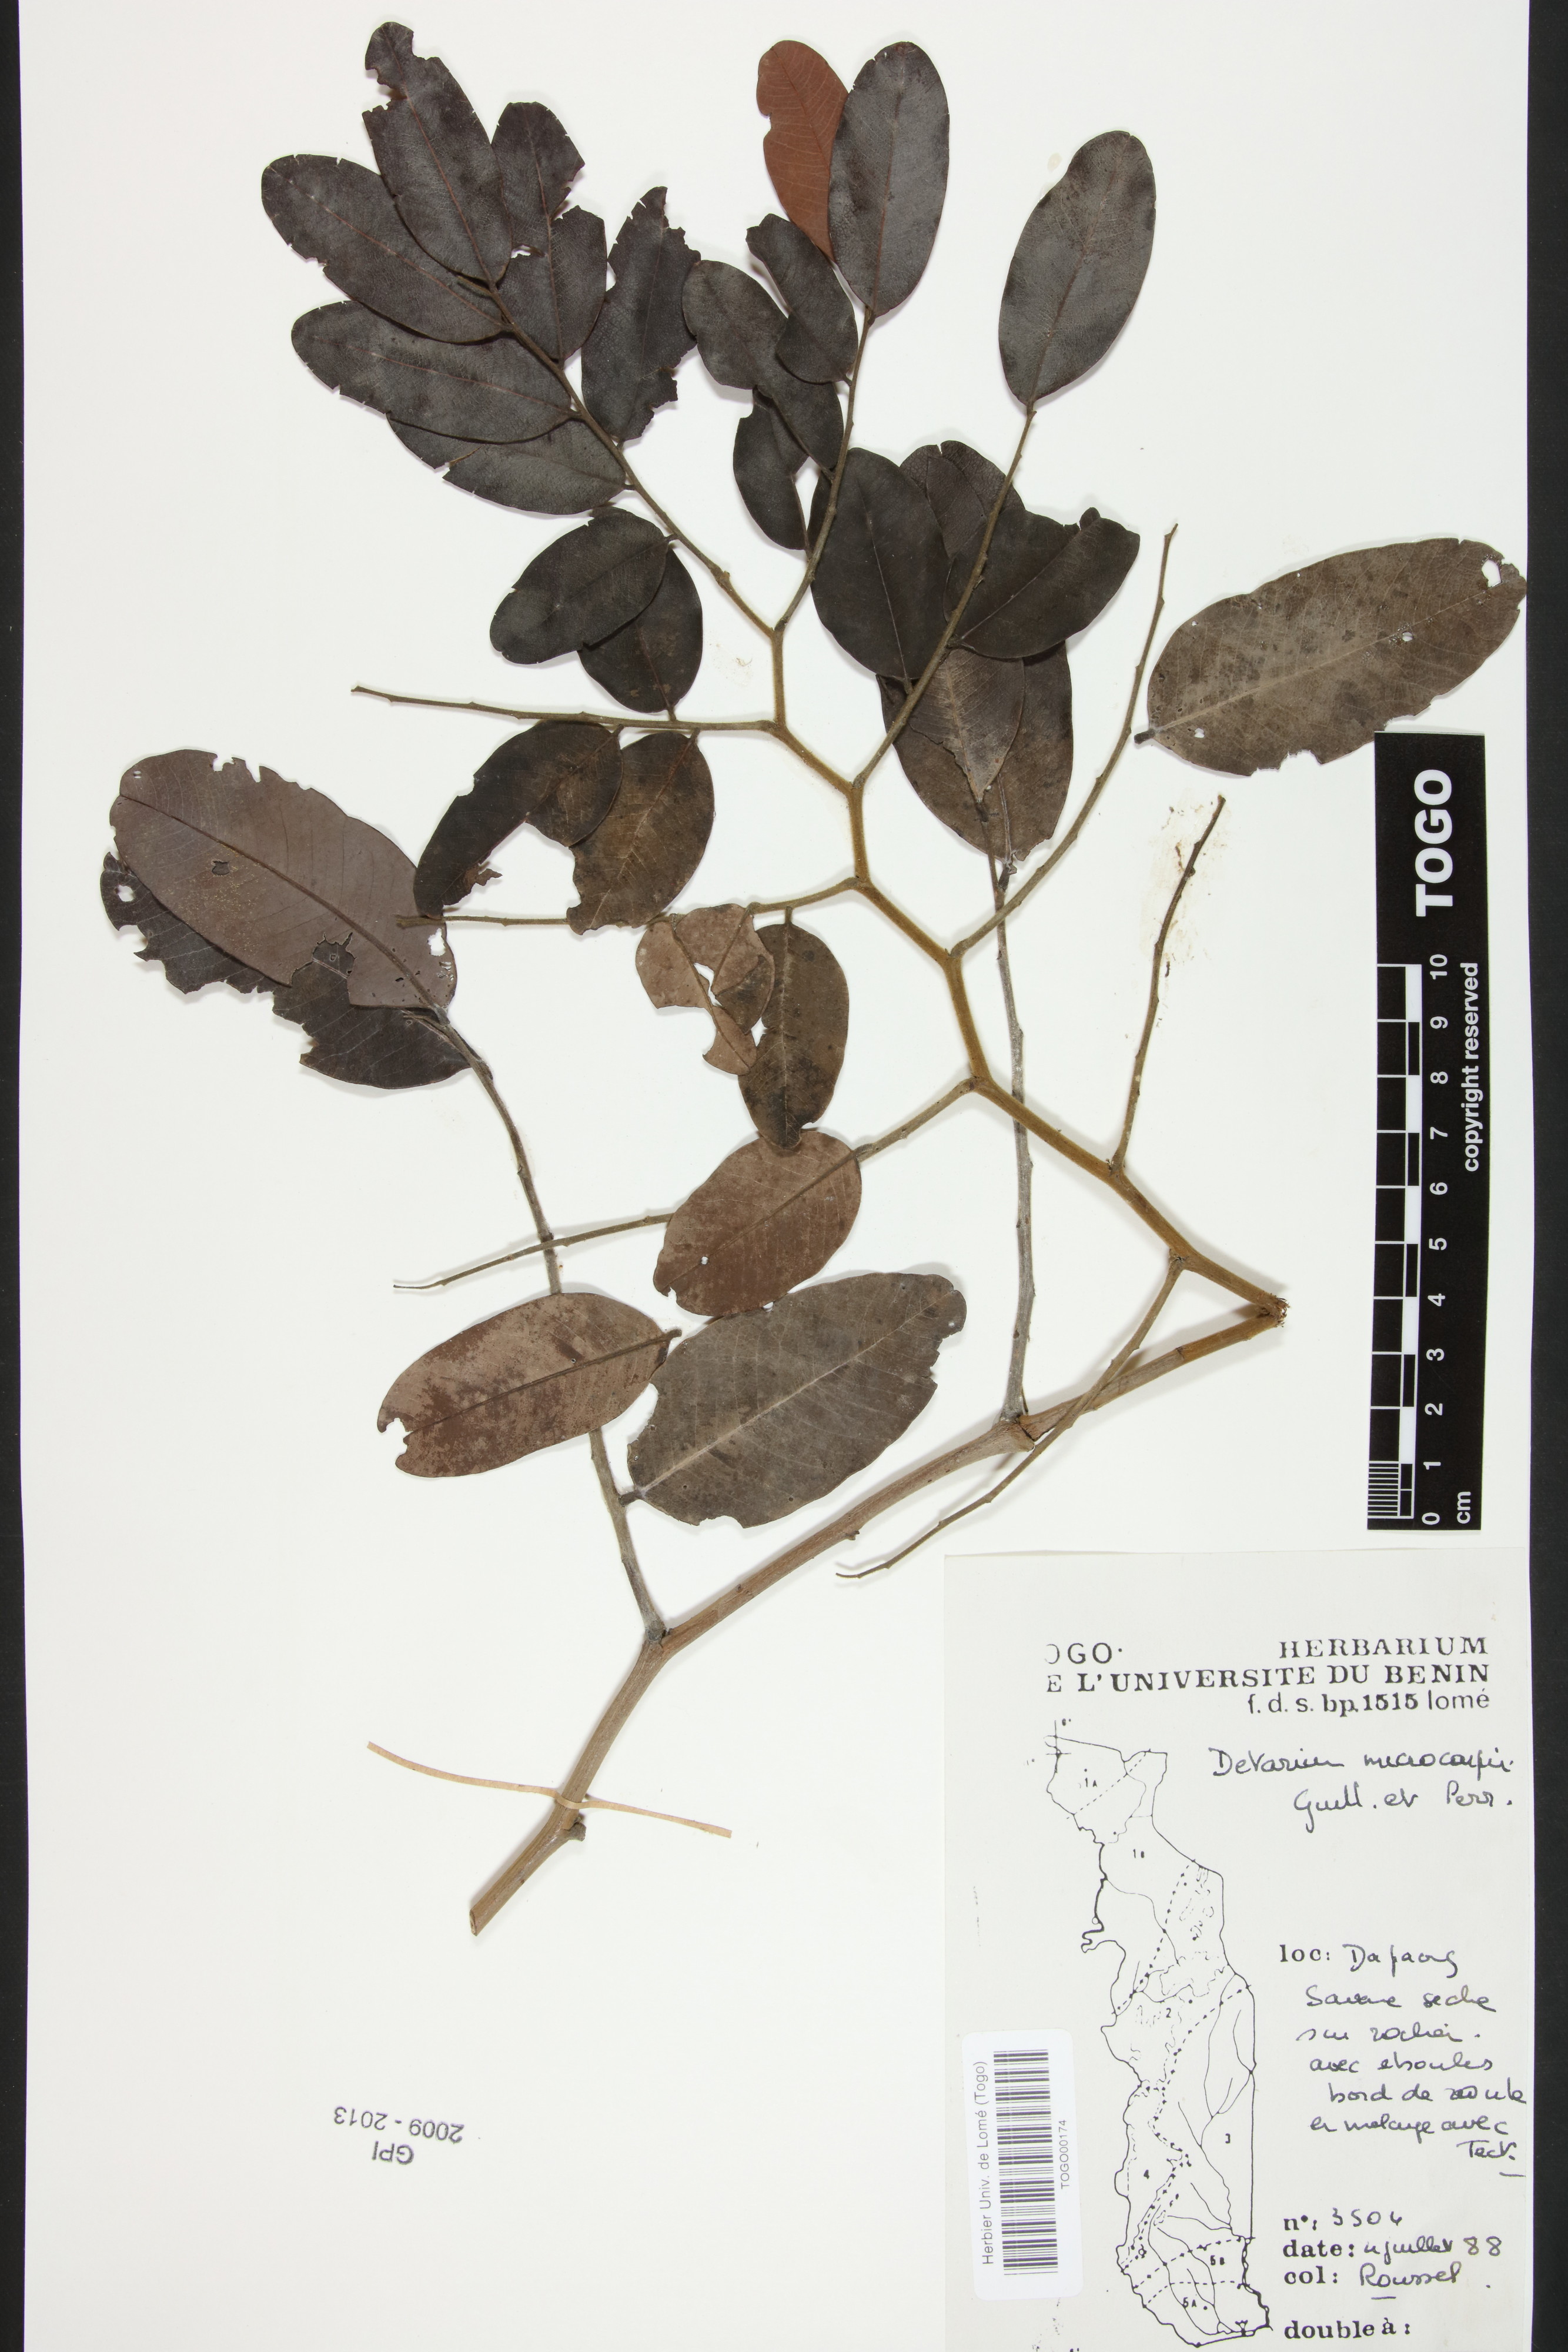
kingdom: Plantae
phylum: Tracheophyta
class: Magnoliopsida
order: Fabales
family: Fabaceae
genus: Detarium
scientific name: Detarium microcarpum
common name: Sweet dattock
